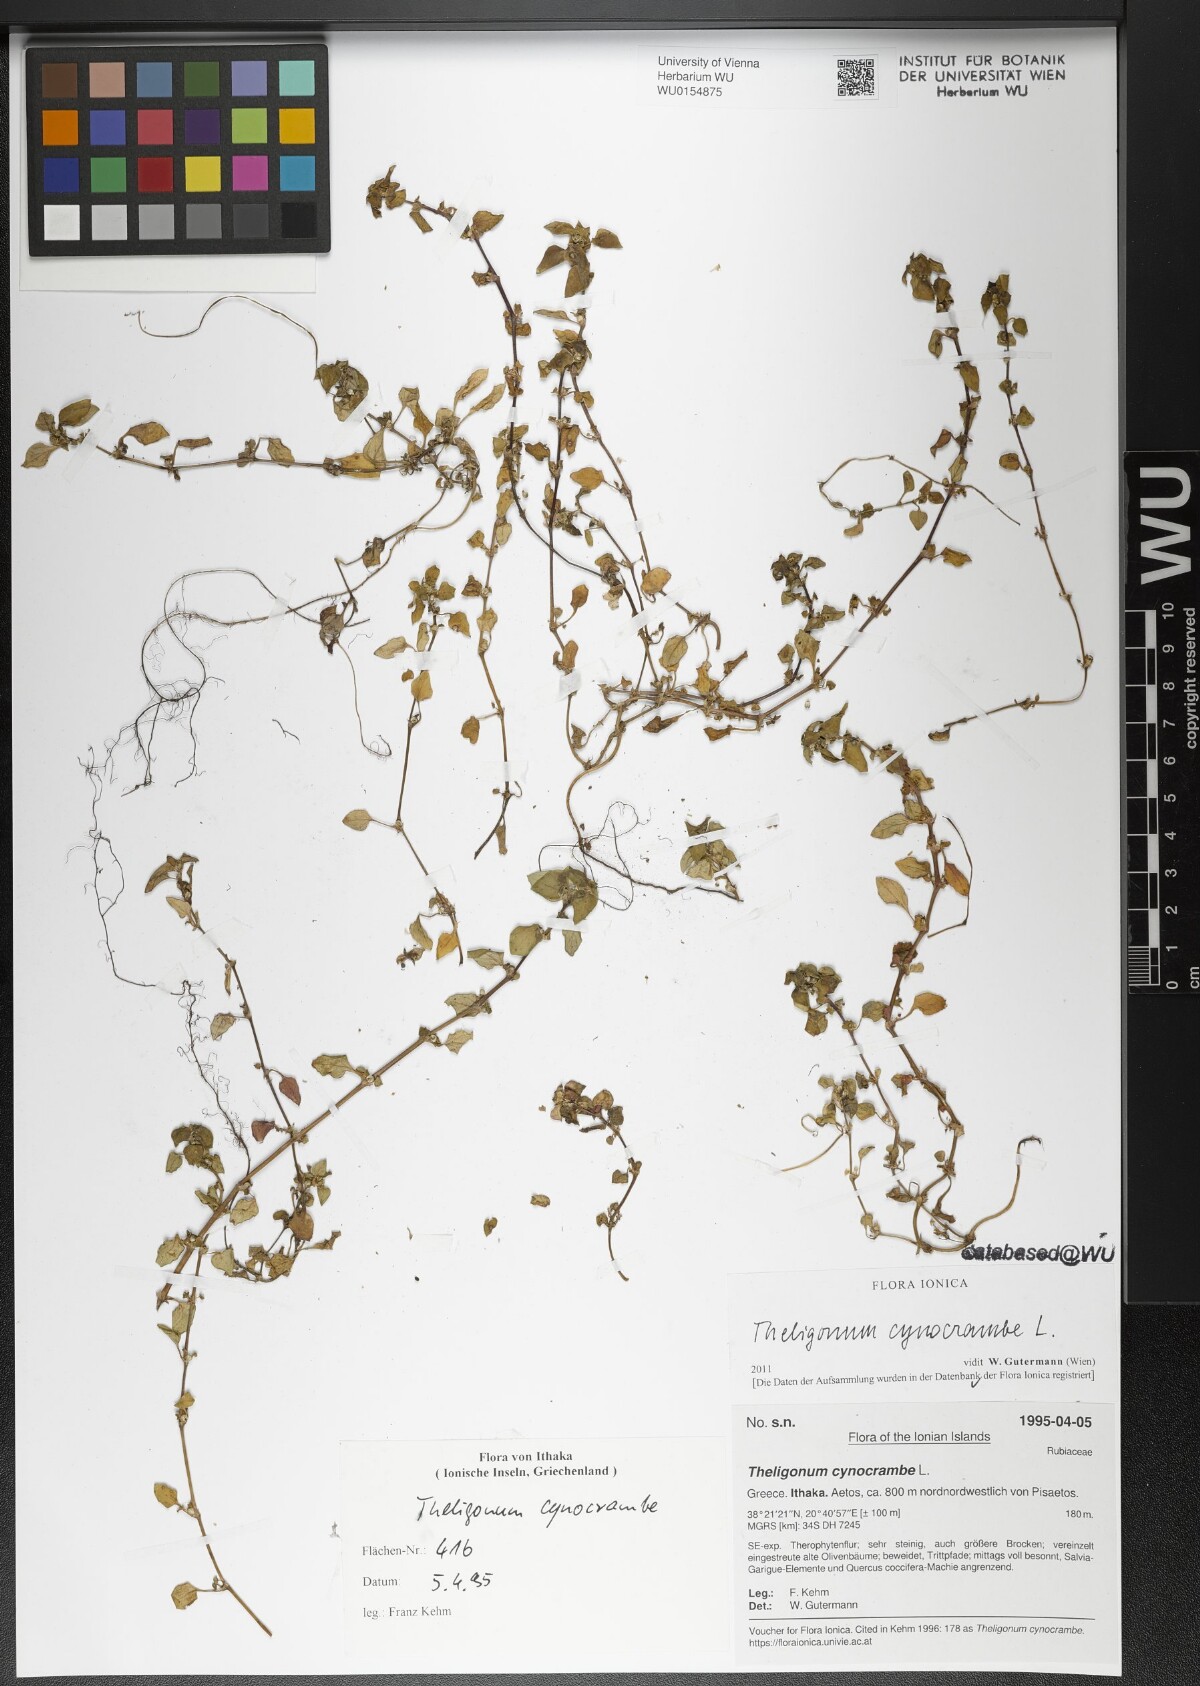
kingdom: Plantae
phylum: Tracheophyta
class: Magnoliopsida
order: Gentianales
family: Rubiaceae
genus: Theligonum
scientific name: Theligonum cynocrambe
